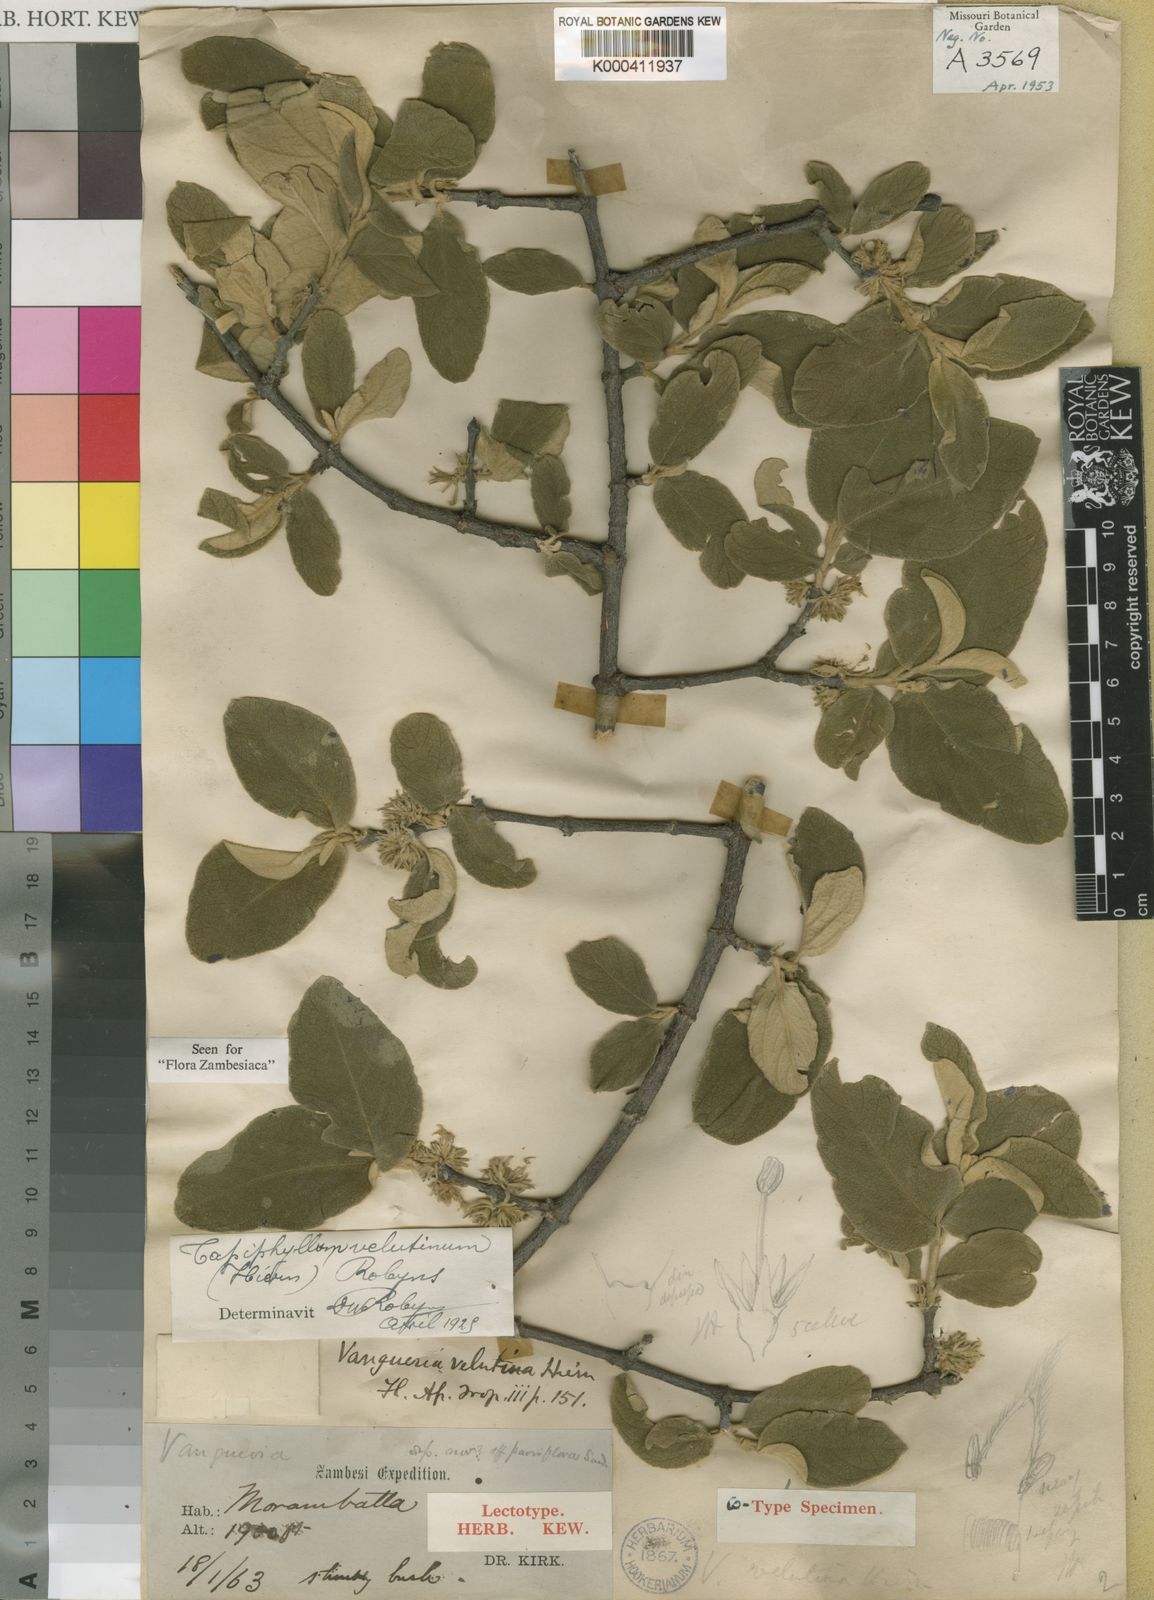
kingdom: Plantae
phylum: Tracheophyta
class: Magnoliopsida
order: Gentianales
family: Rubiaceae
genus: Vangueria
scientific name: Vangueria vestita
